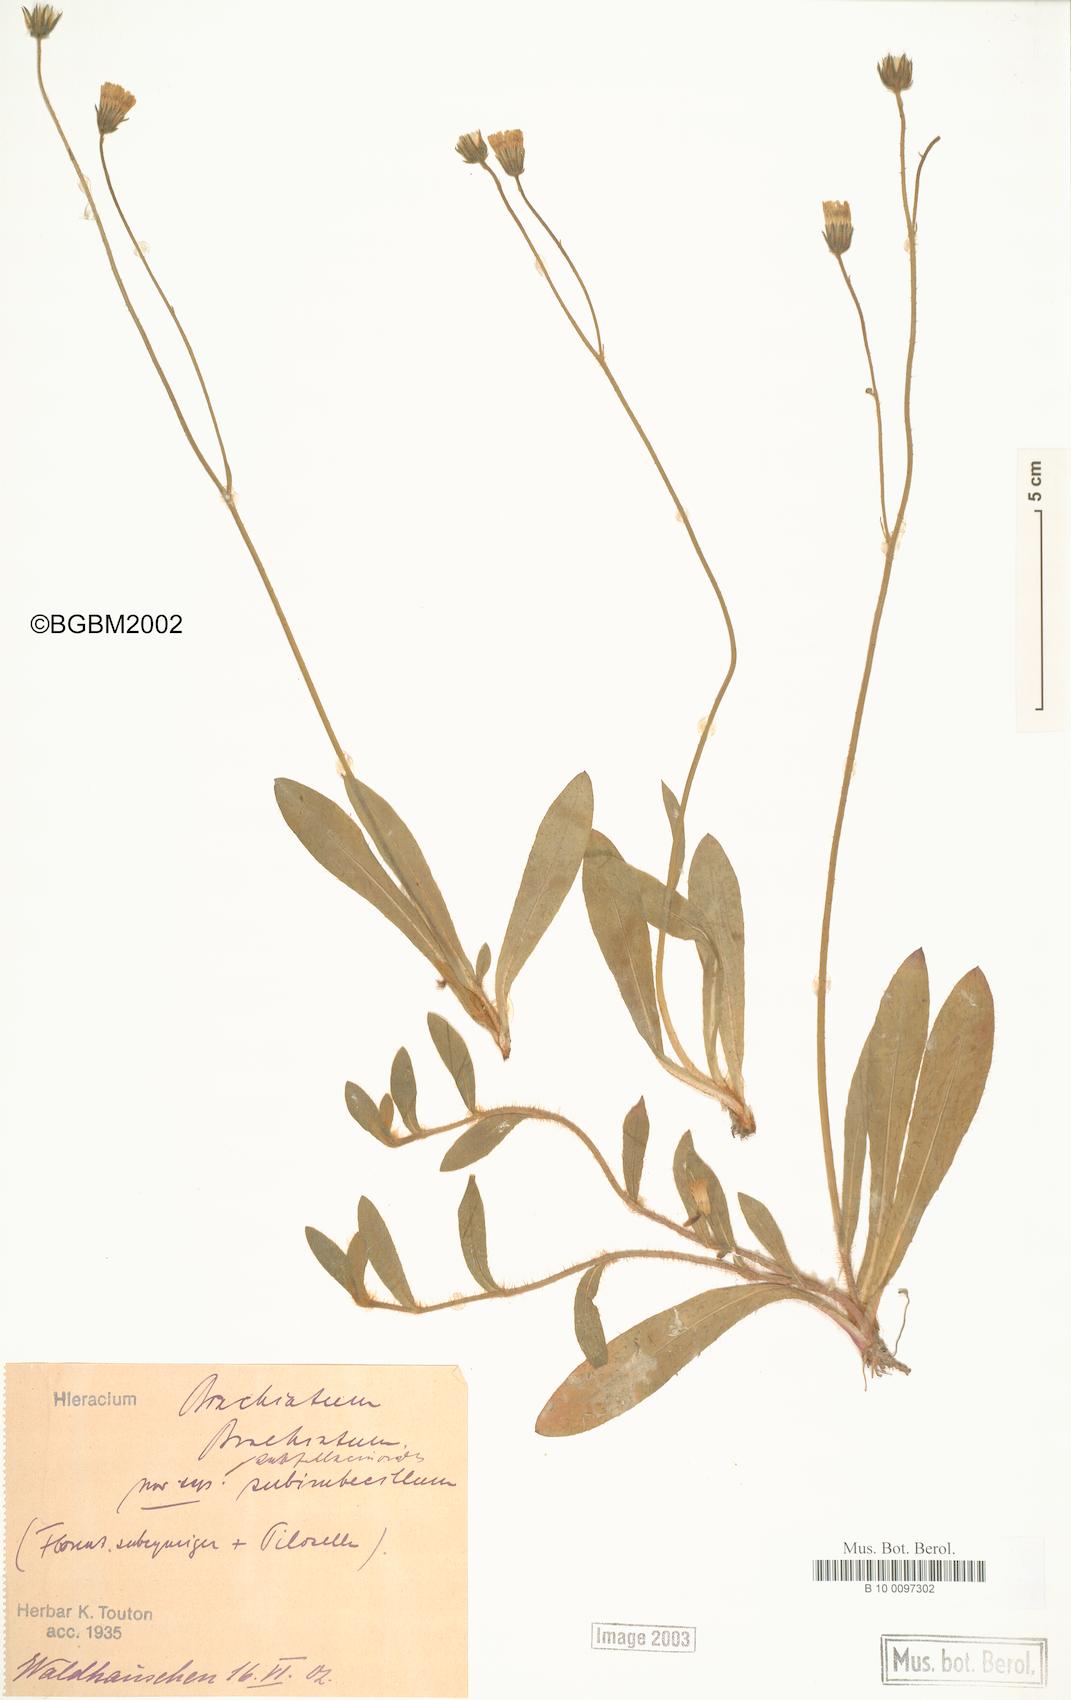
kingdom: Plantae
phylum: Tracheophyta
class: Magnoliopsida
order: Asterales
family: Asteraceae
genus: Pilosella
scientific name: Pilosella acutifolia
